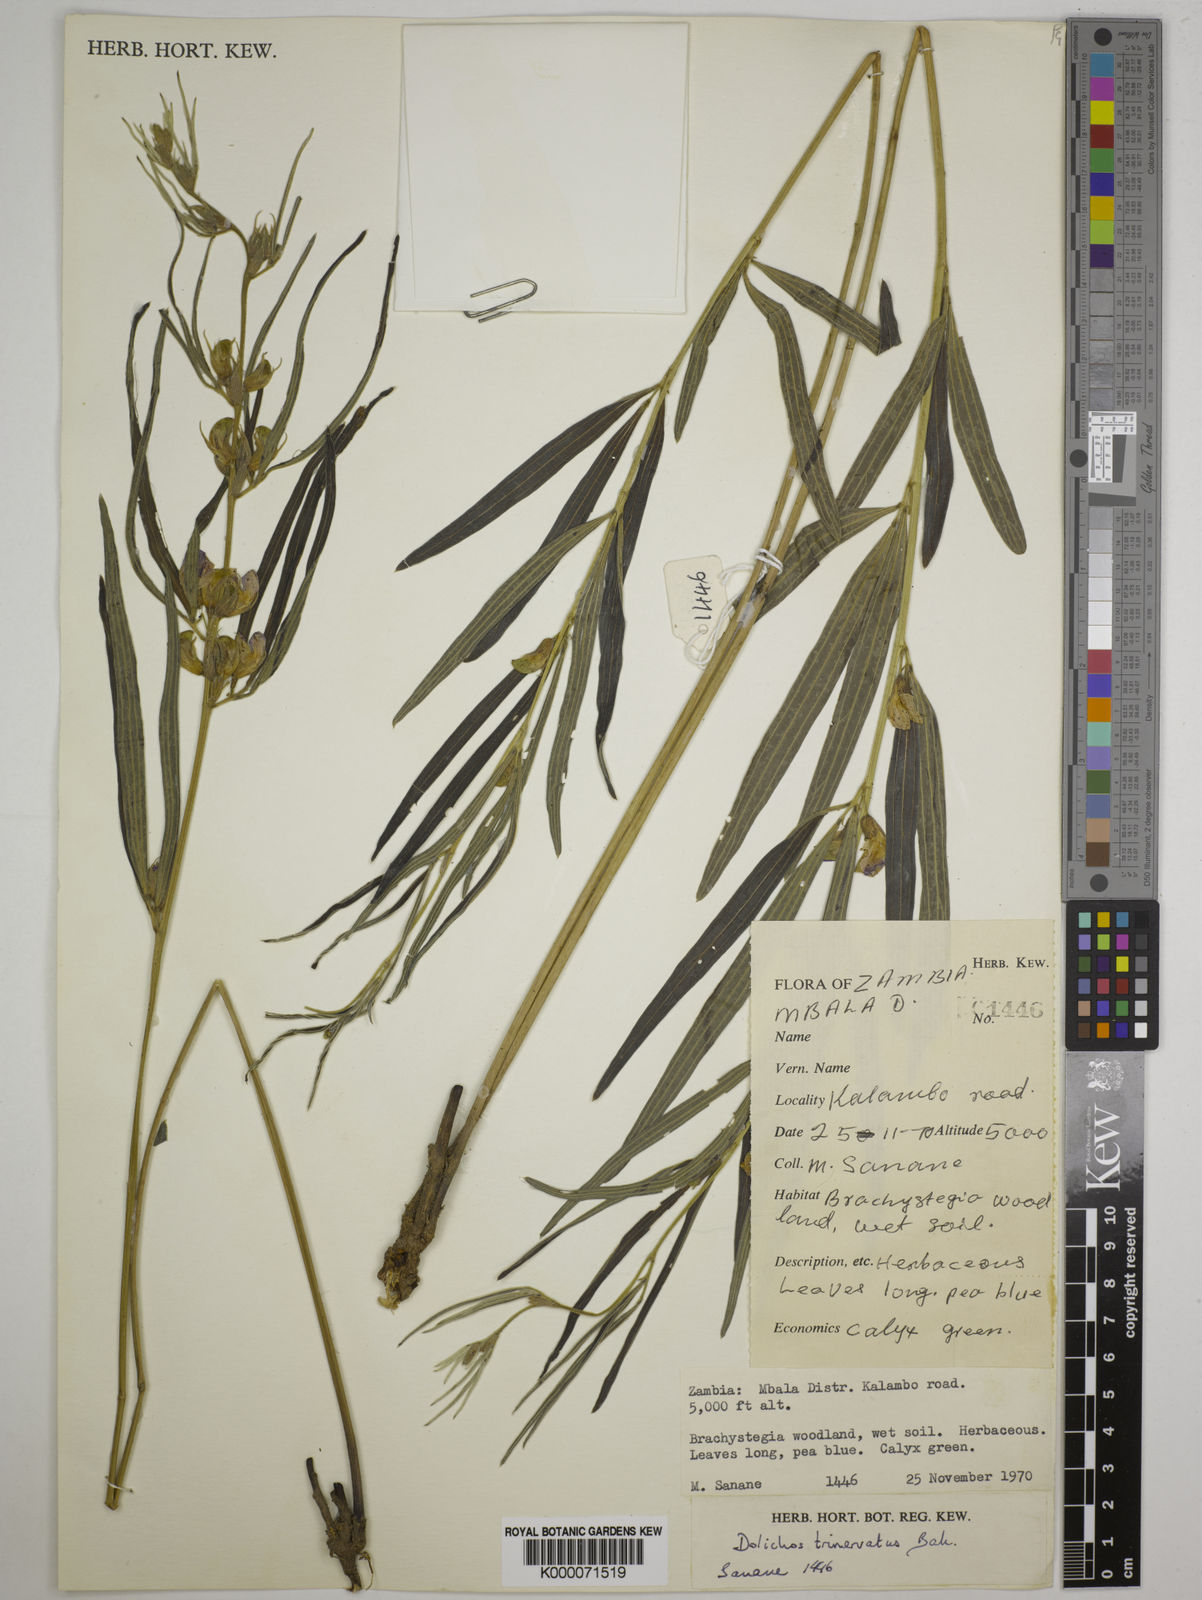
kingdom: Plantae
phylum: Tracheophyta
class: Magnoliopsida
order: Fabales
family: Fabaceae
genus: Dolichos
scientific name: Dolichos trinervatus
